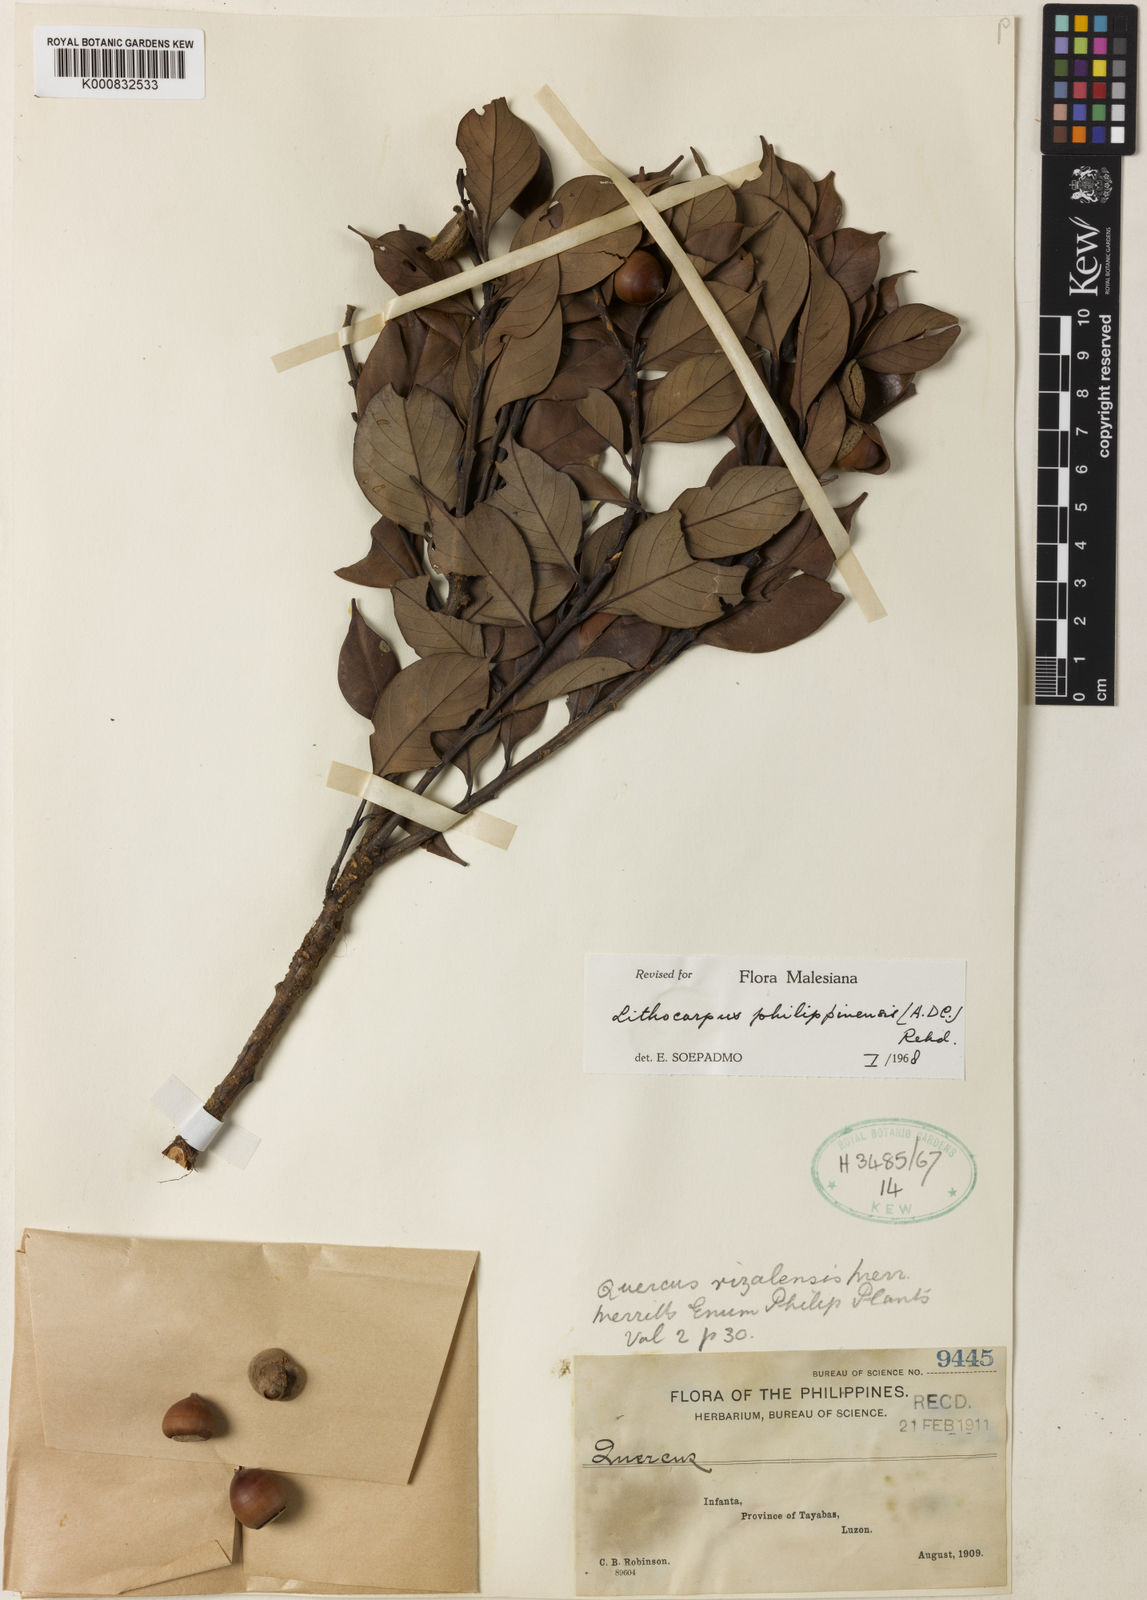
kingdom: Plantae
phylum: Tracheophyta
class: Magnoliopsida
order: Fagales
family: Fagaceae
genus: Lithocarpus
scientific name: Lithocarpus philippinensis
